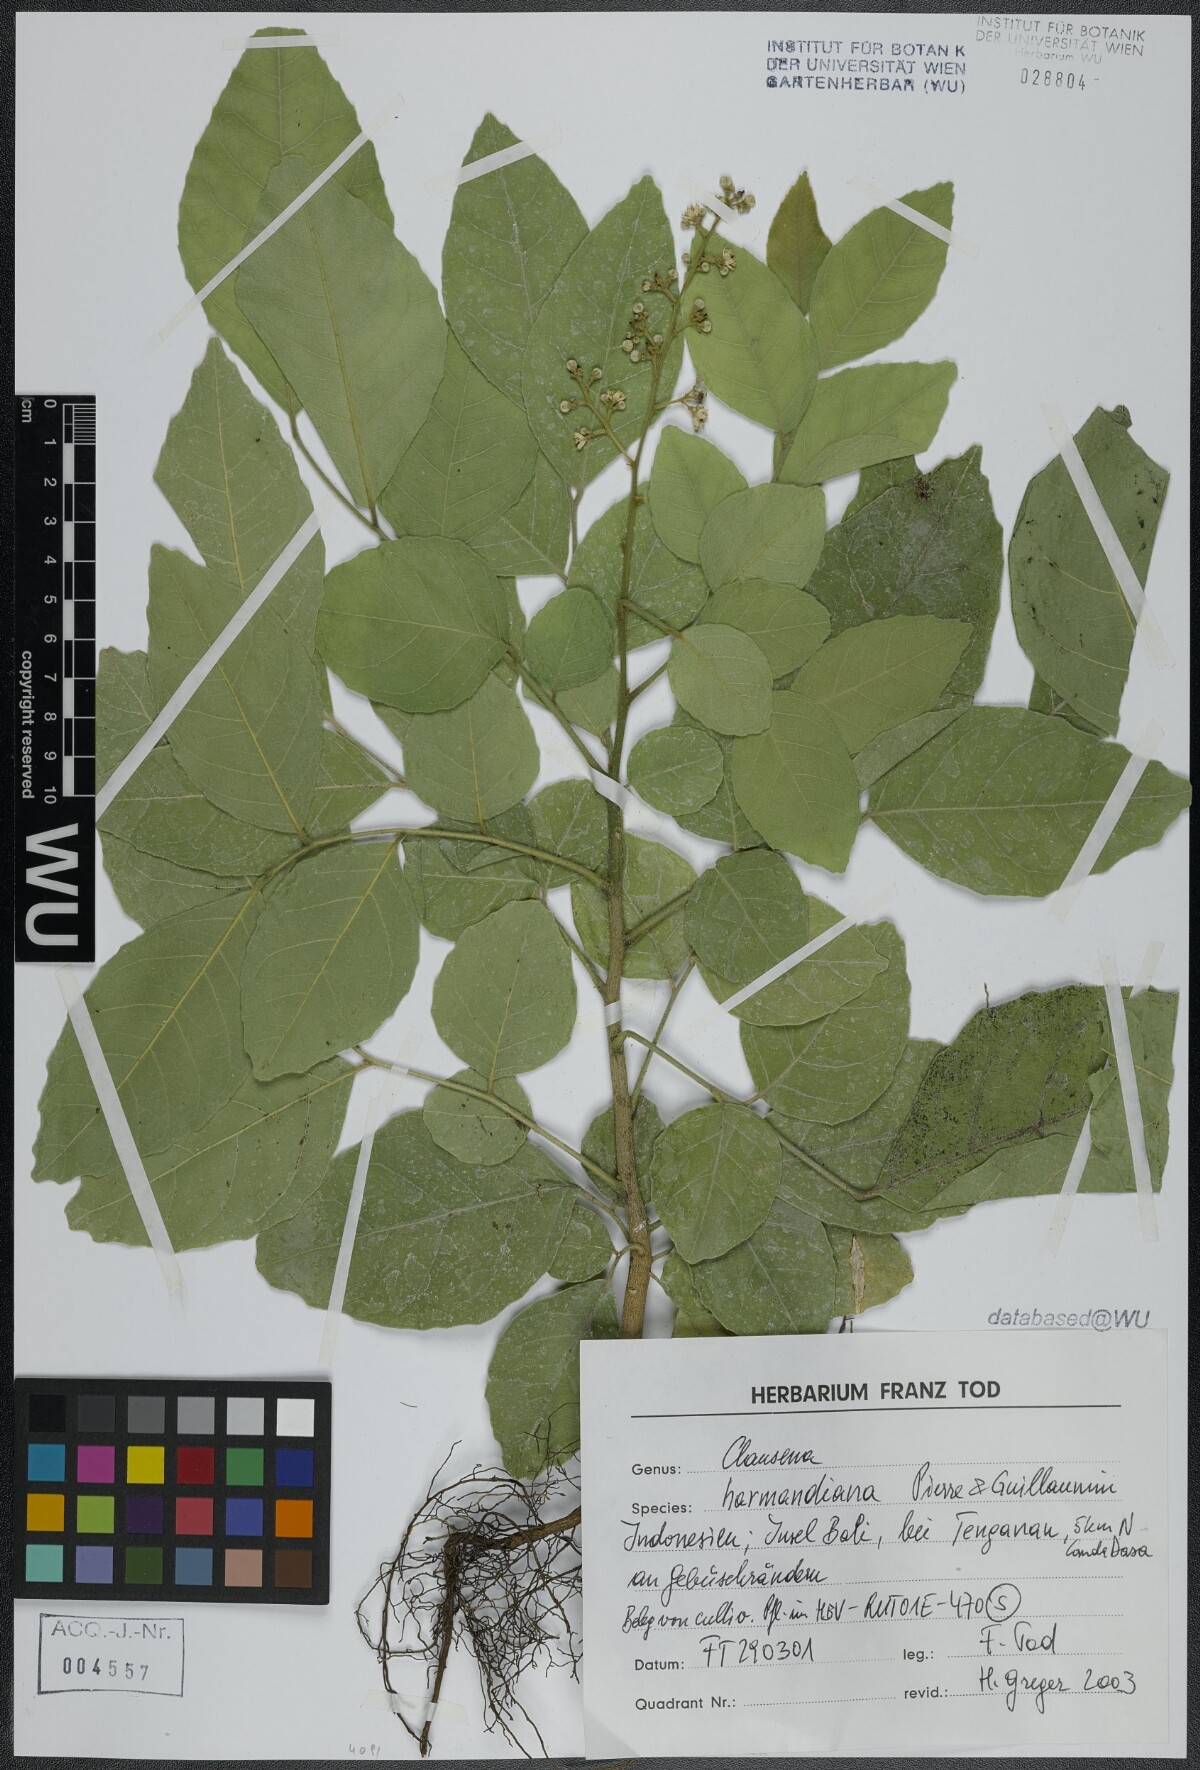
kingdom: Plantae
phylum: Tracheophyta
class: Magnoliopsida
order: Sapindales
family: Rutaceae
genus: Clausena
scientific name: Clausena harmandiana
